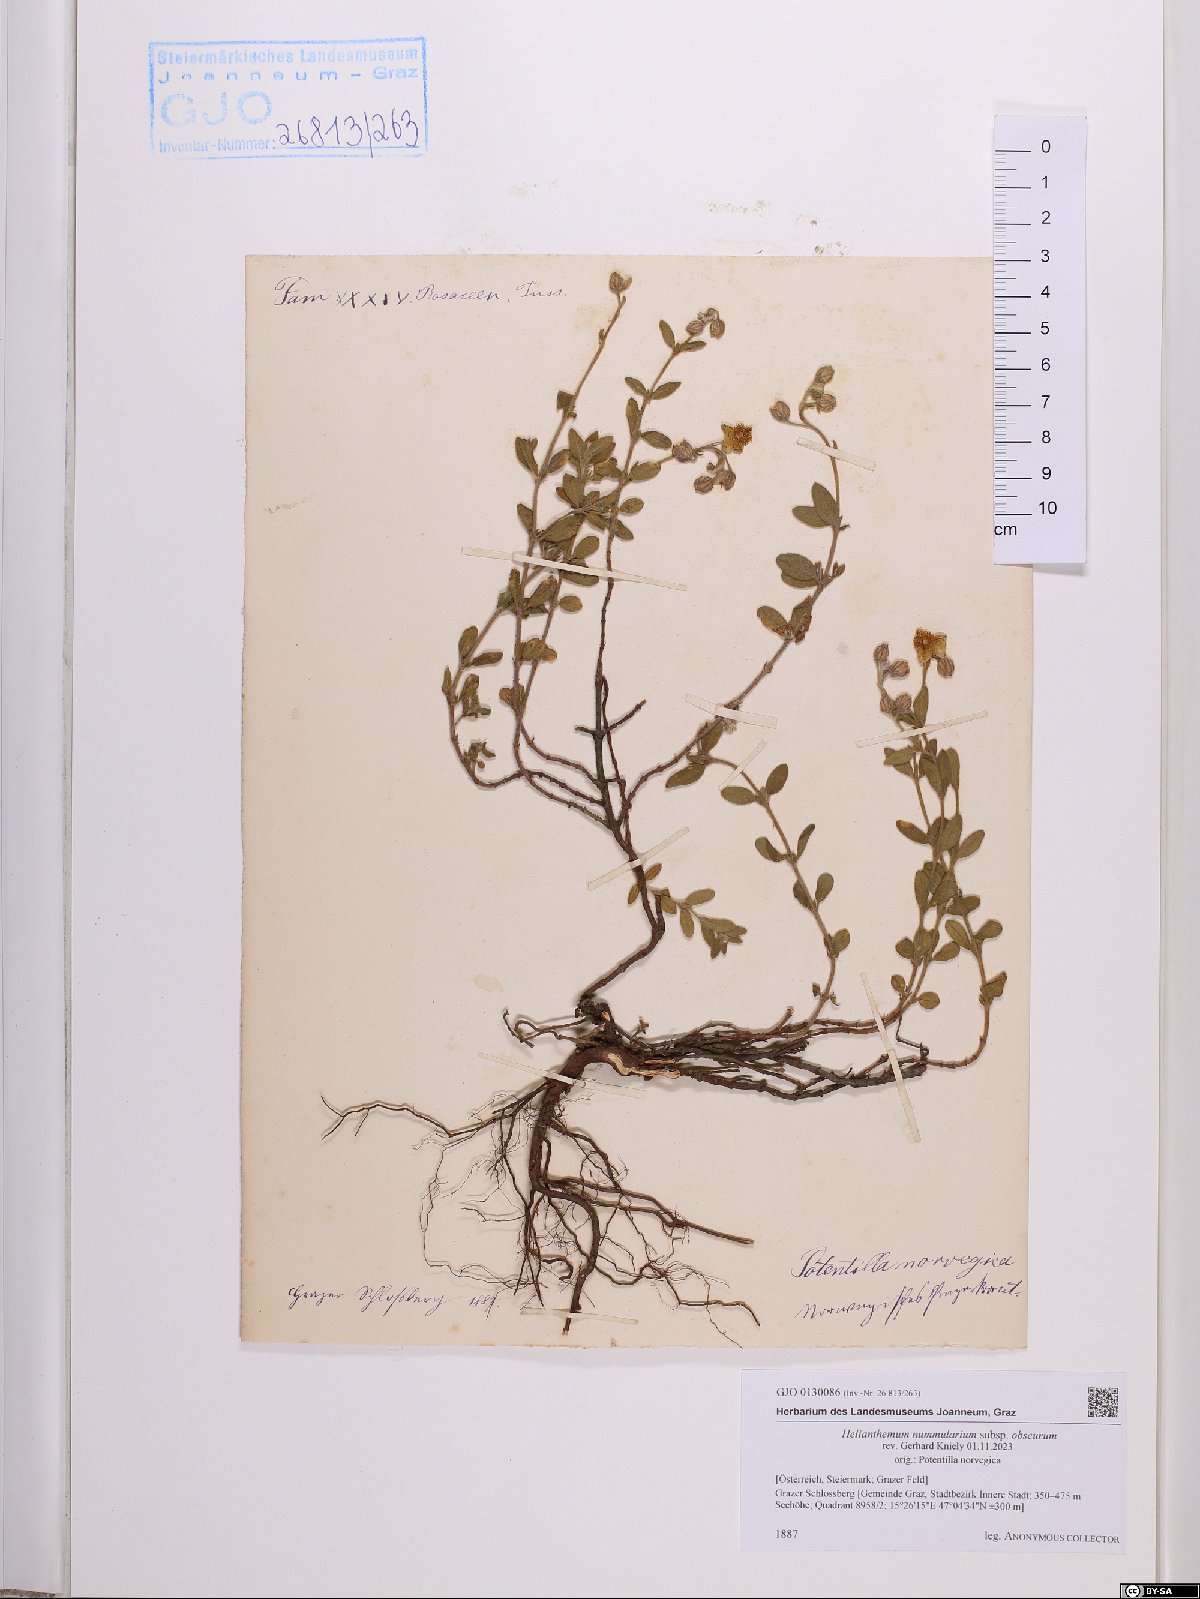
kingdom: Plantae
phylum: Tracheophyta
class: Magnoliopsida
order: Malvales
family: Cistaceae
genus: Helianthemum
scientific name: Helianthemum nummularium
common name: Common rock-rose
